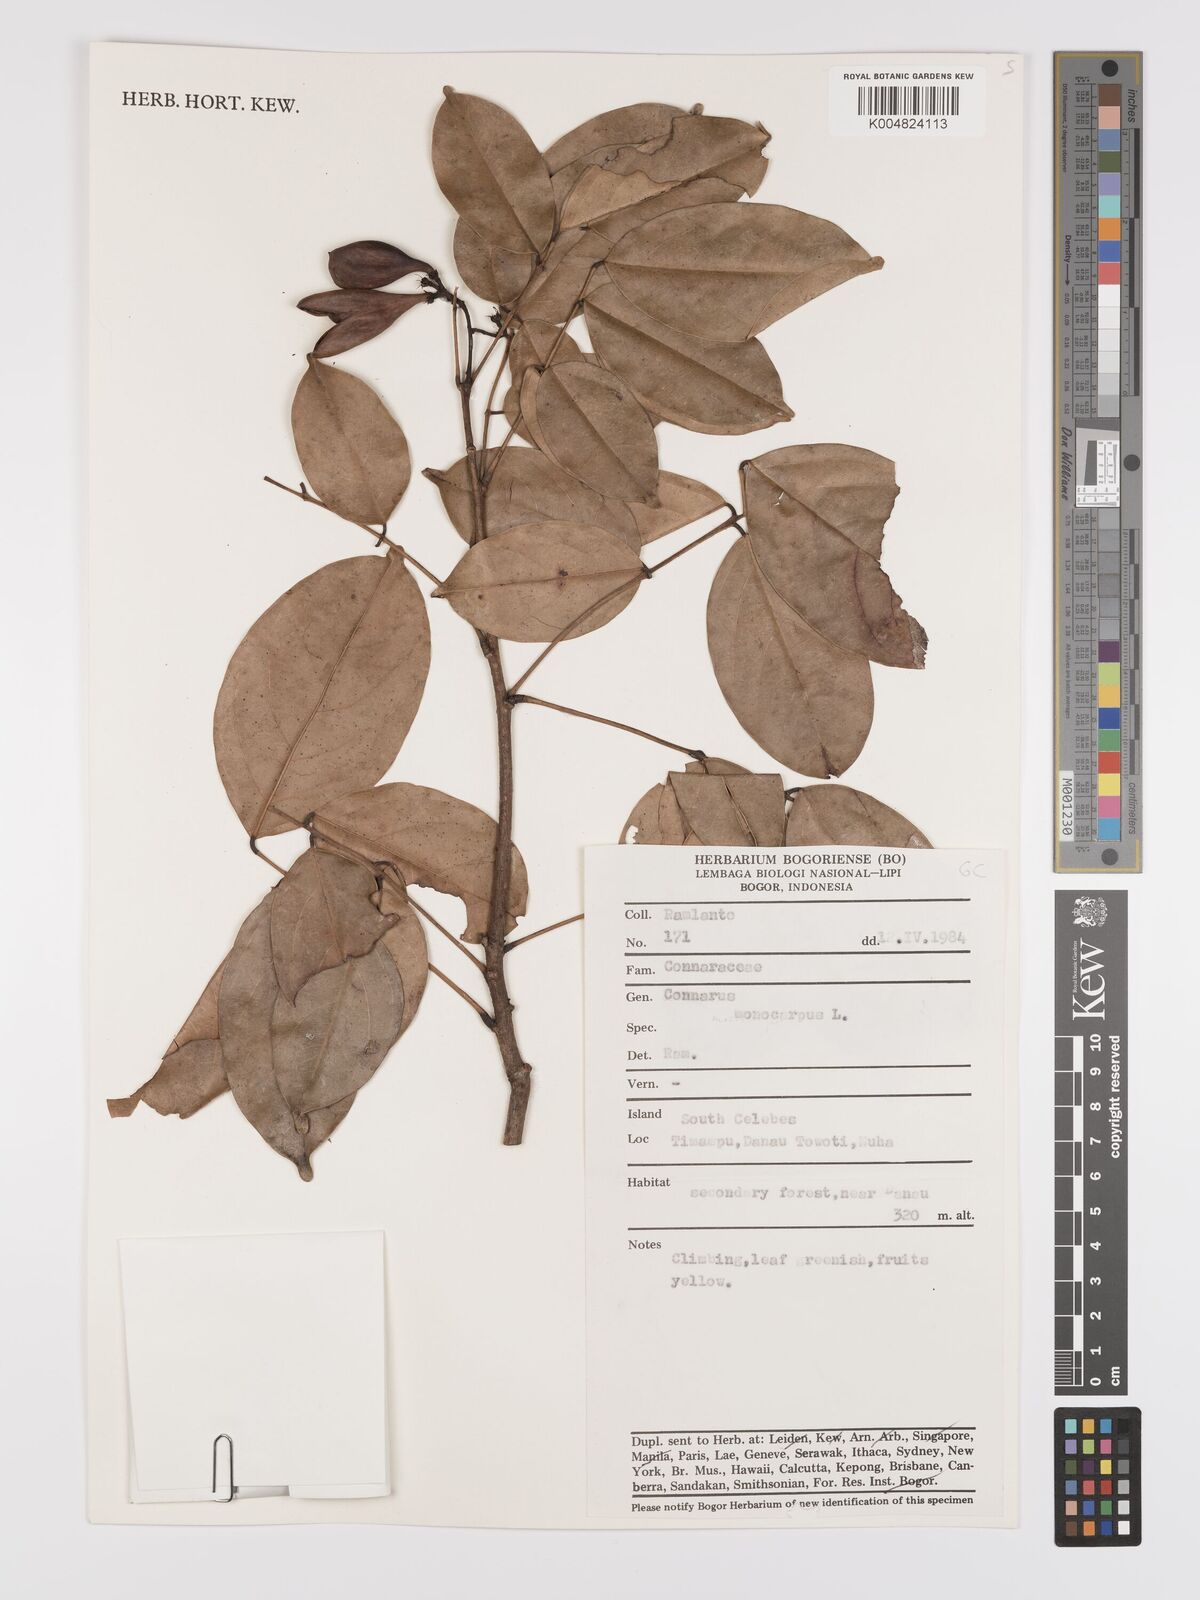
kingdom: Plantae
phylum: Tracheophyta
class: Magnoliopsida
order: Oxalidales
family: Connaraceae
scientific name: Connaraceae
